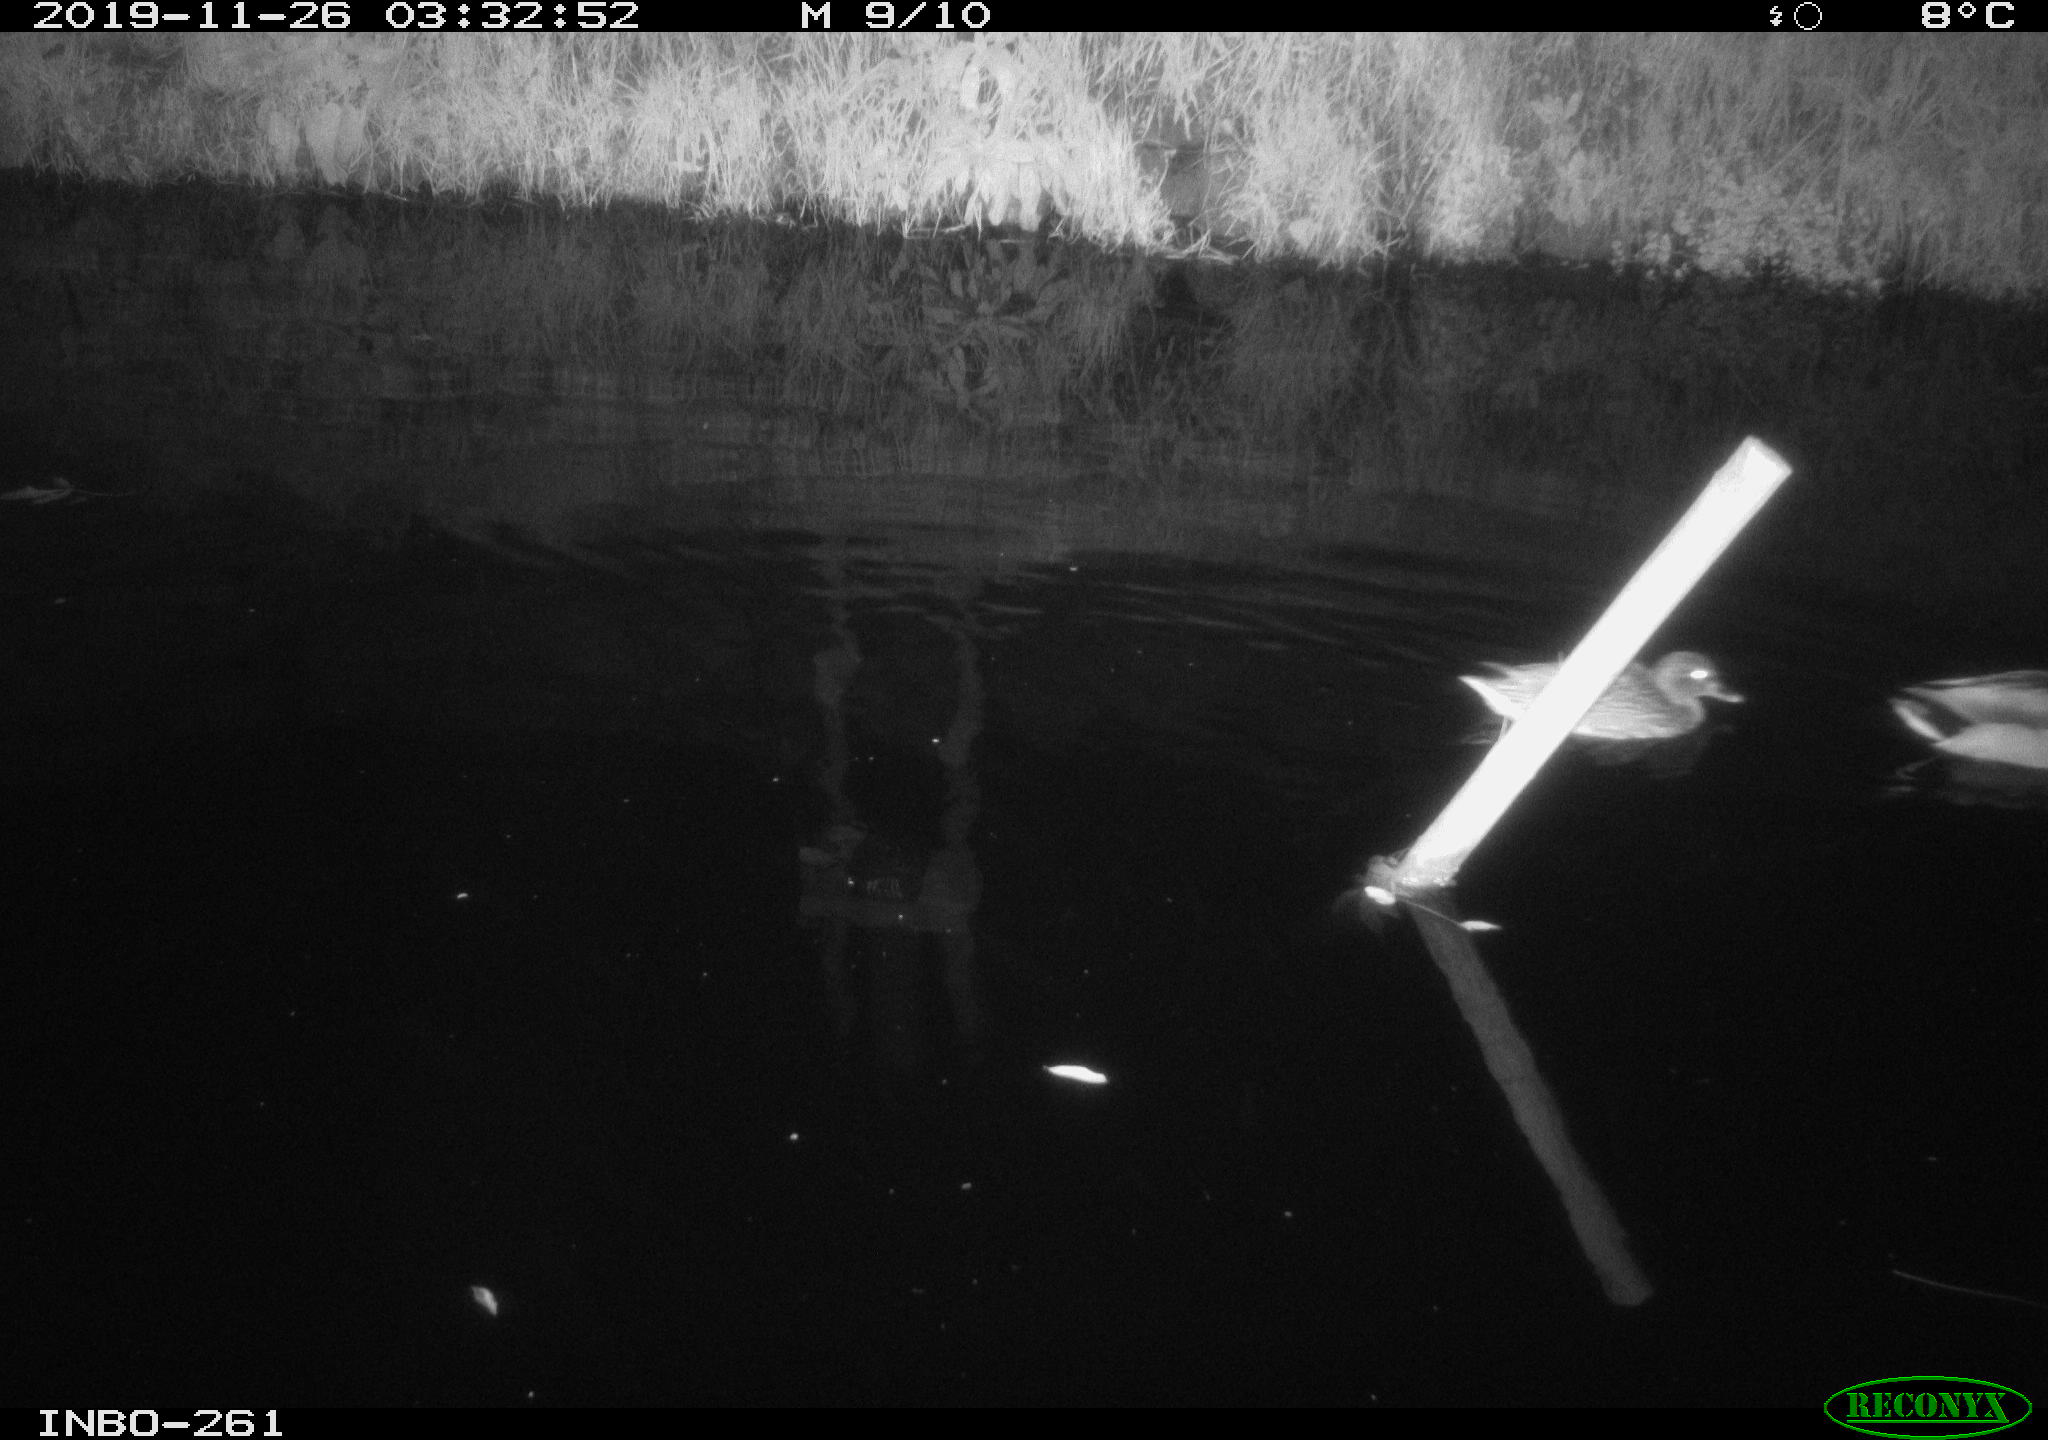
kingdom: Animalia
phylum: Chordata
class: Aves
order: Anseriformes
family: Anatidae
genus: Anas
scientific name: Anas platyrhynchos
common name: Mallard
